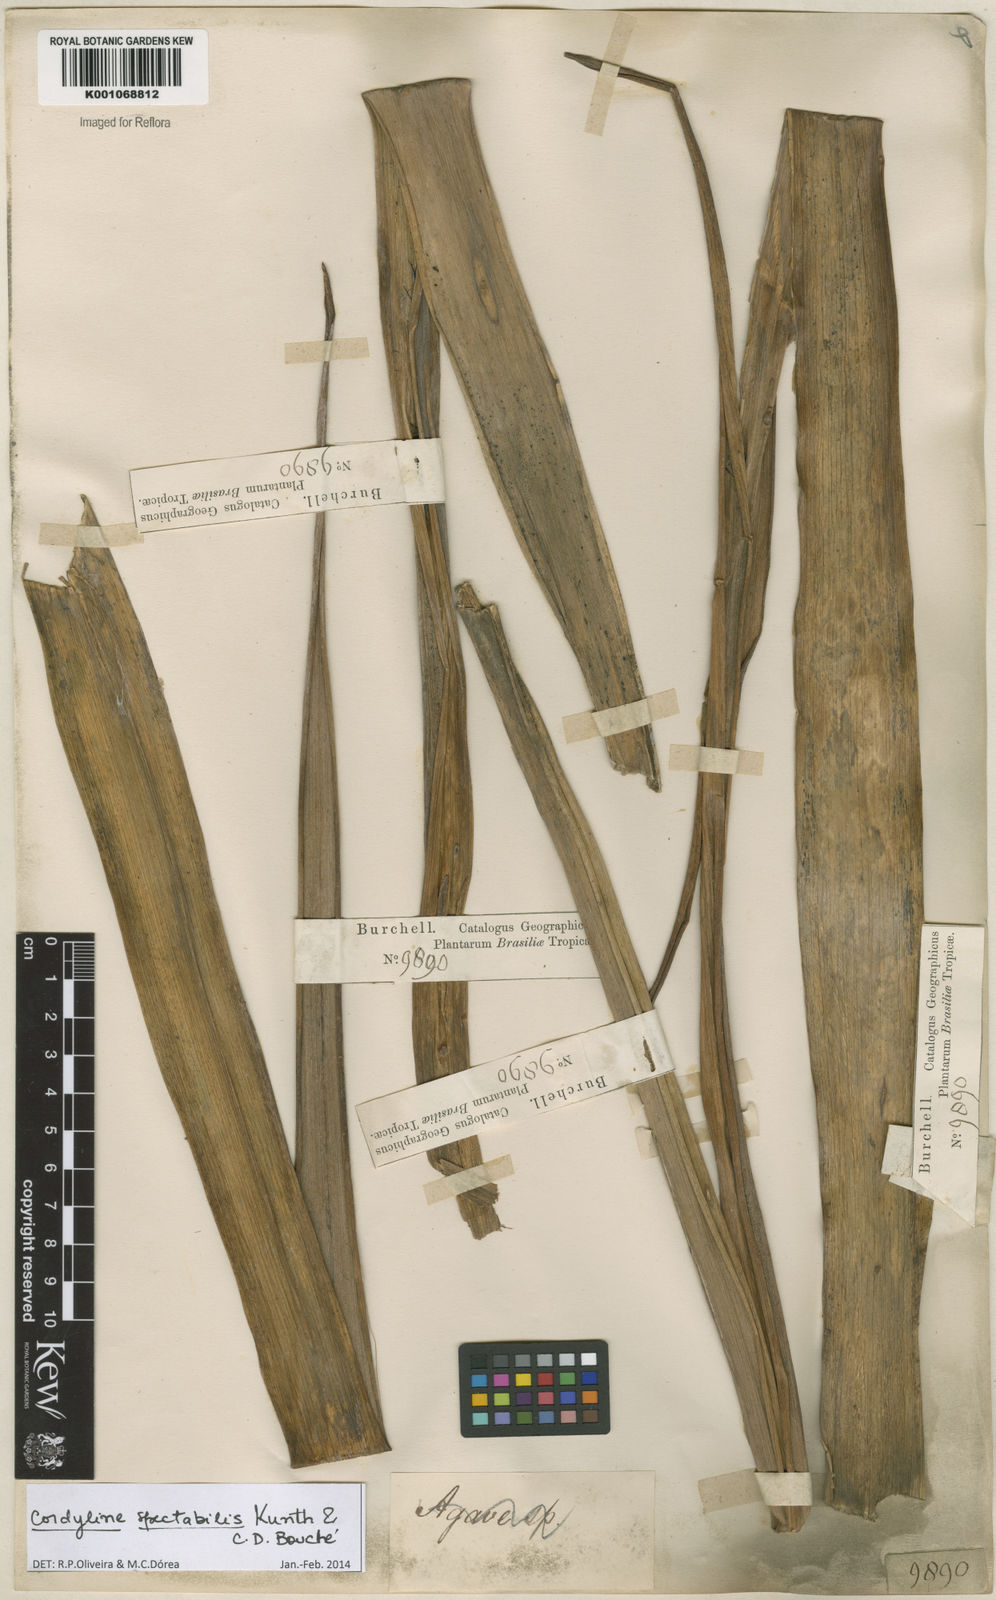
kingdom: Plantae
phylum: Tracheophyta
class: Liliopsida
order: Asparagales
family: Asparagaceae
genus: Cordyline
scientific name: Cordyline
